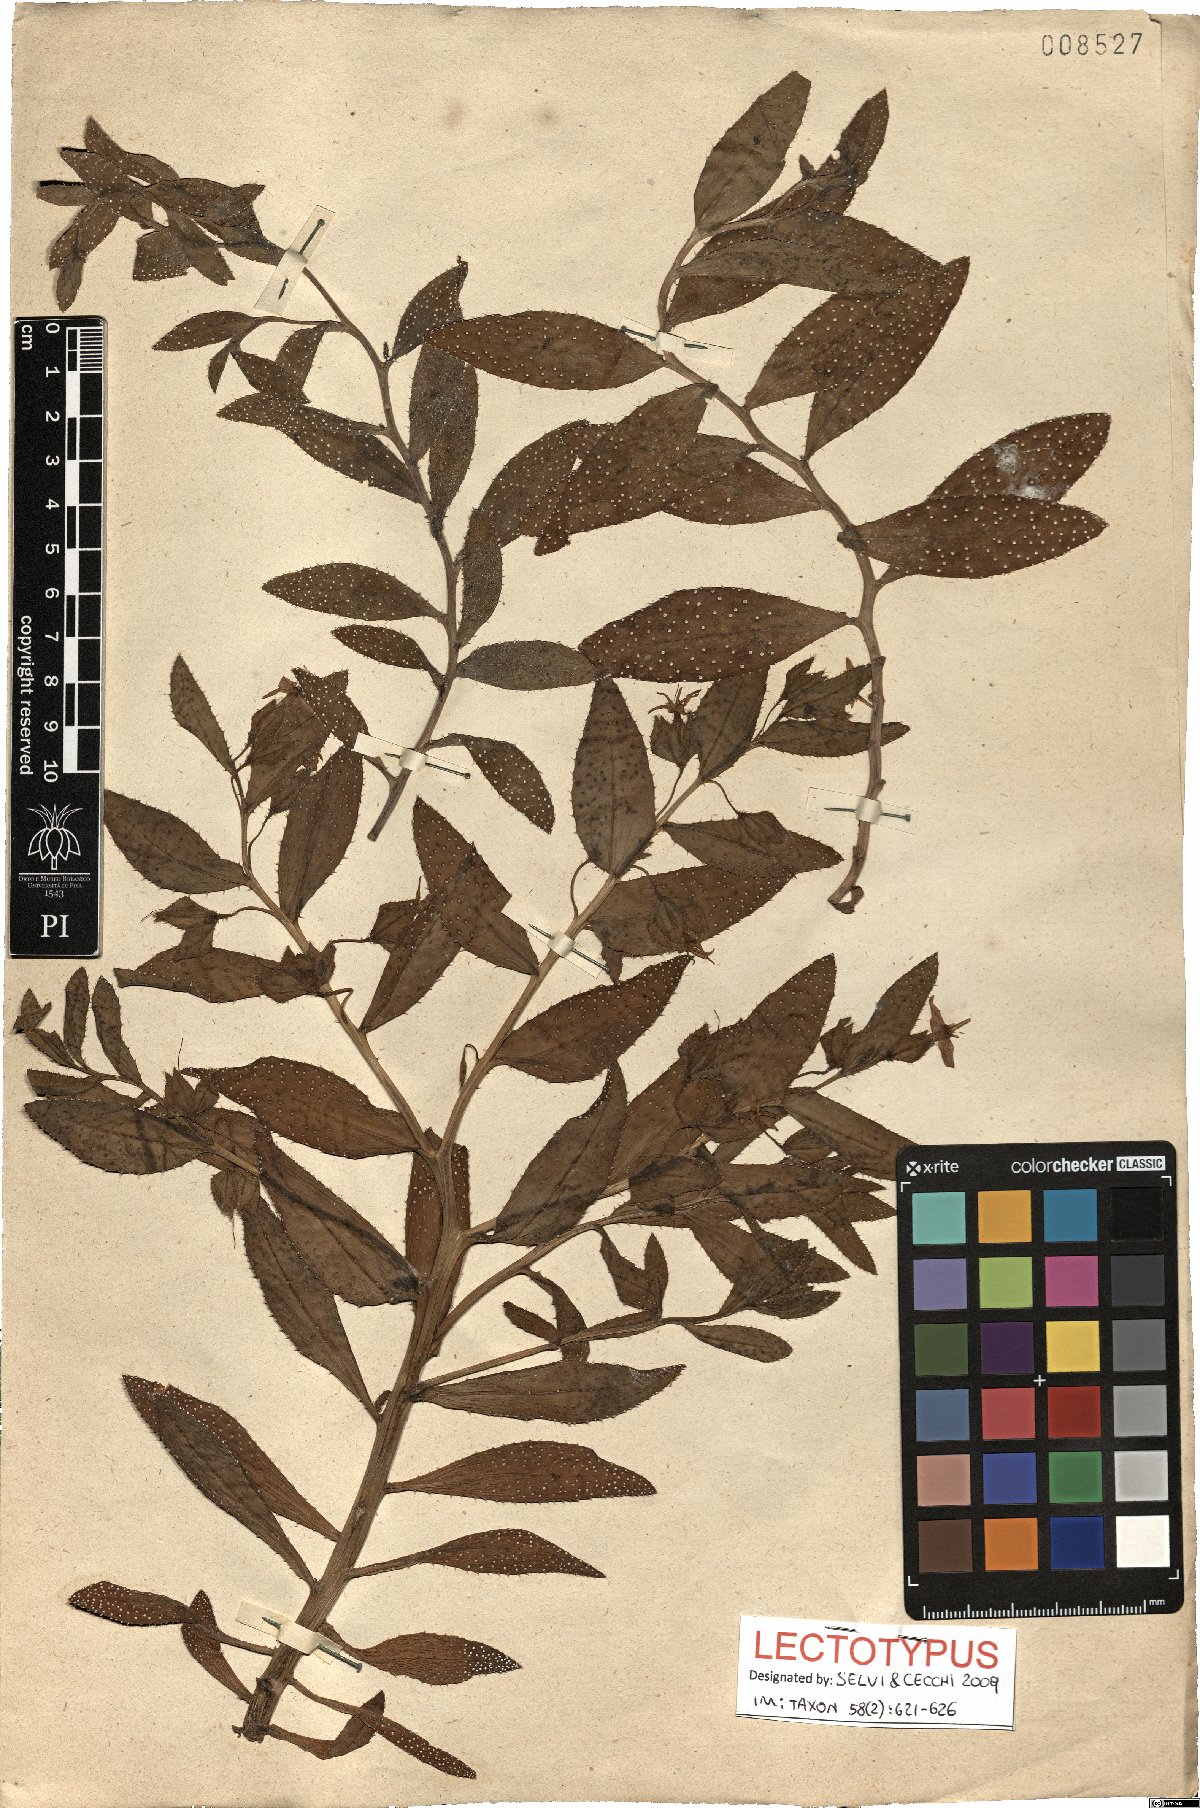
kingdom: Plantae
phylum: Tracheophyta
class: Magnoliopsida
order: Boraginales
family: Boraginaceae
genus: Caccinia
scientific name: Caccinia macranthera
